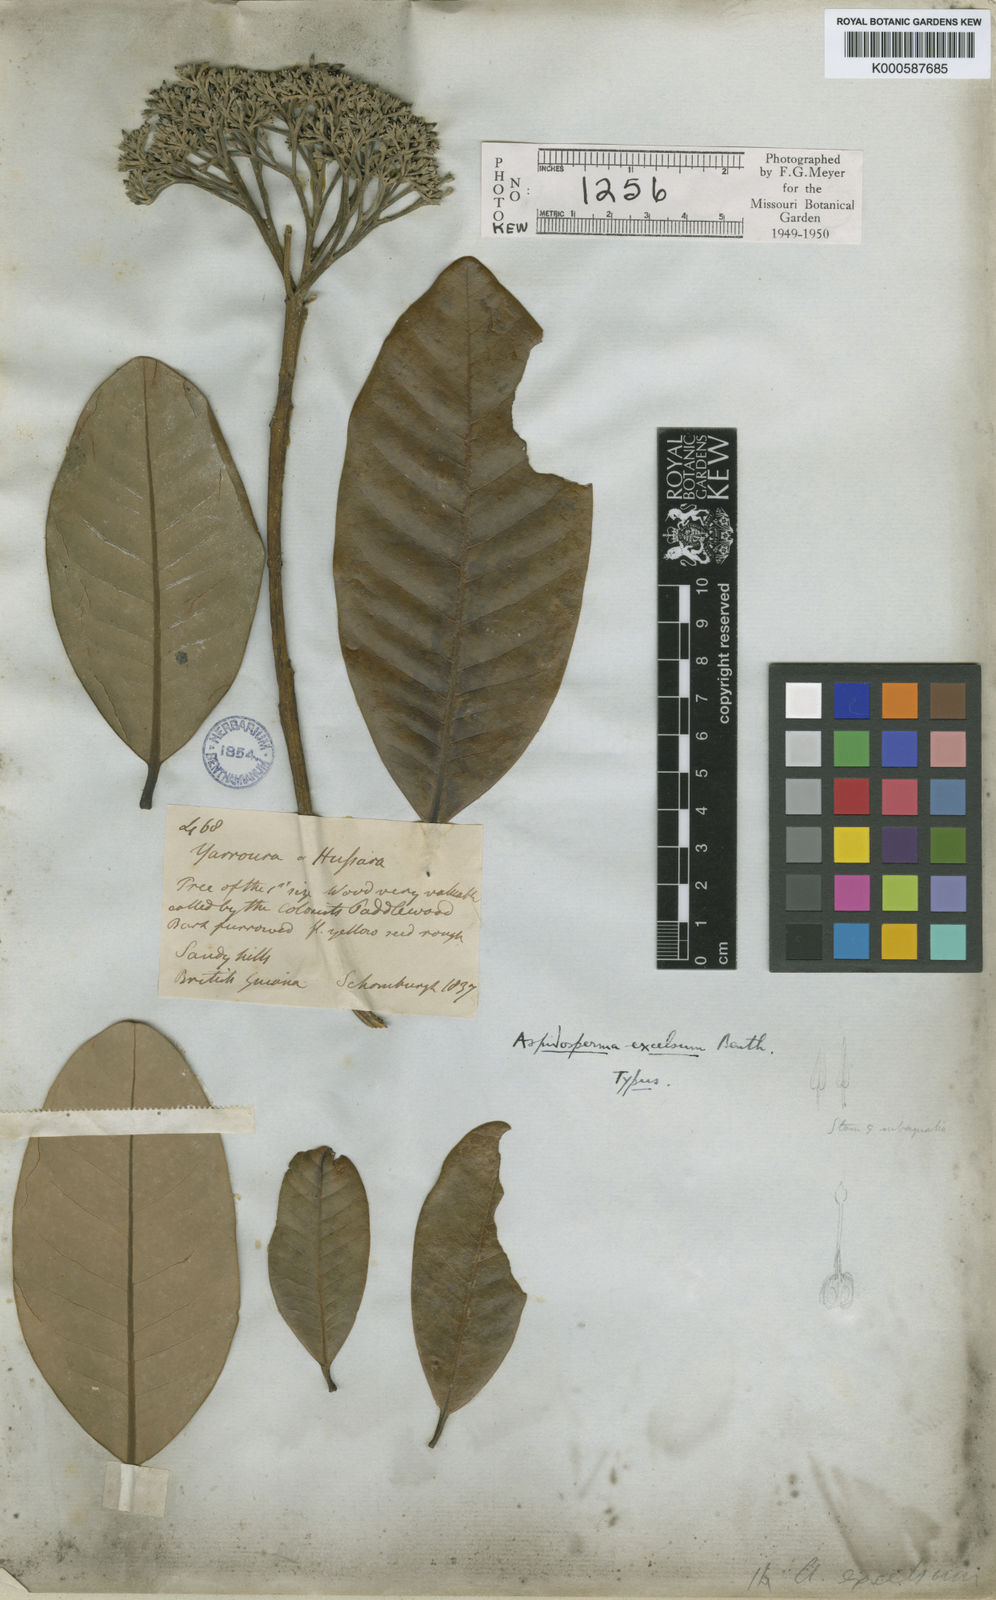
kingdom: Plantae
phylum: Tracheophyta
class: Magnoliopsida
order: Gentianales
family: Apocynaceae
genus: Aspidosperma
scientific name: Aspidosperma excelsum
